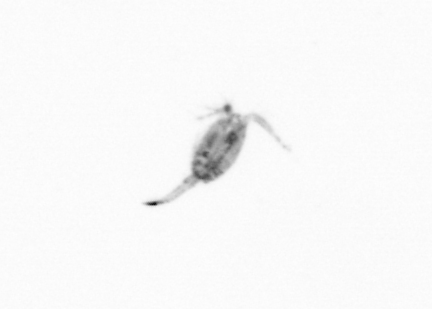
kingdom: Animalia
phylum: Arthropoda
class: Copepoda
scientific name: Copepoda
